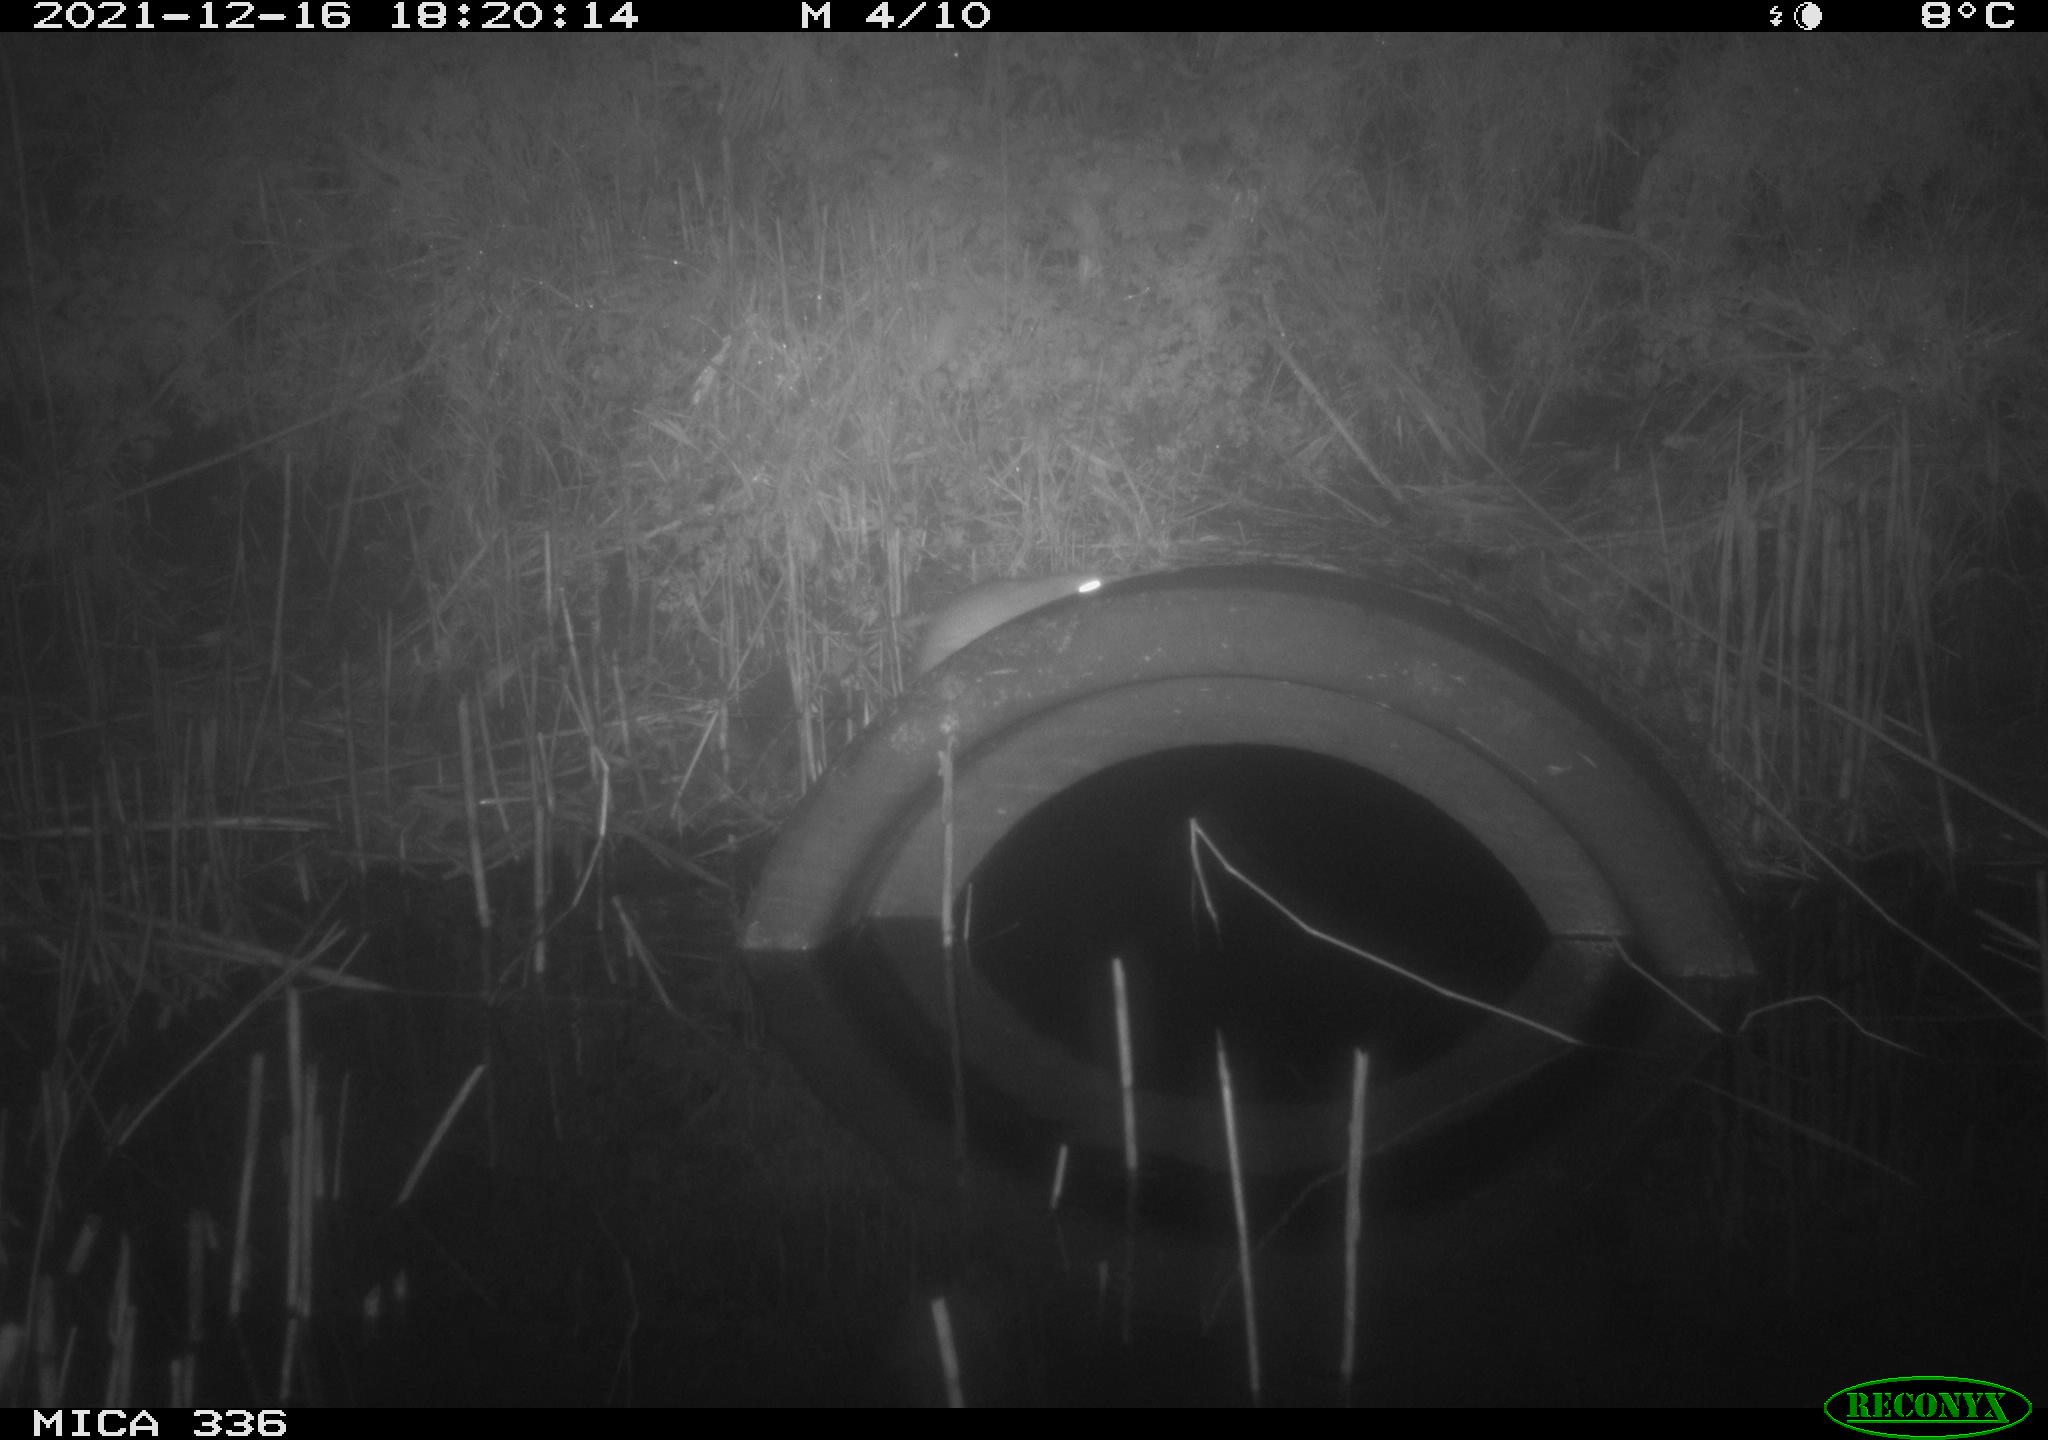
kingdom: Animalia
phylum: Chordata
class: Mammalia
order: Rodentia
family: Muridae
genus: Rattus
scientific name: Rattus norvegicus
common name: Brown rat
